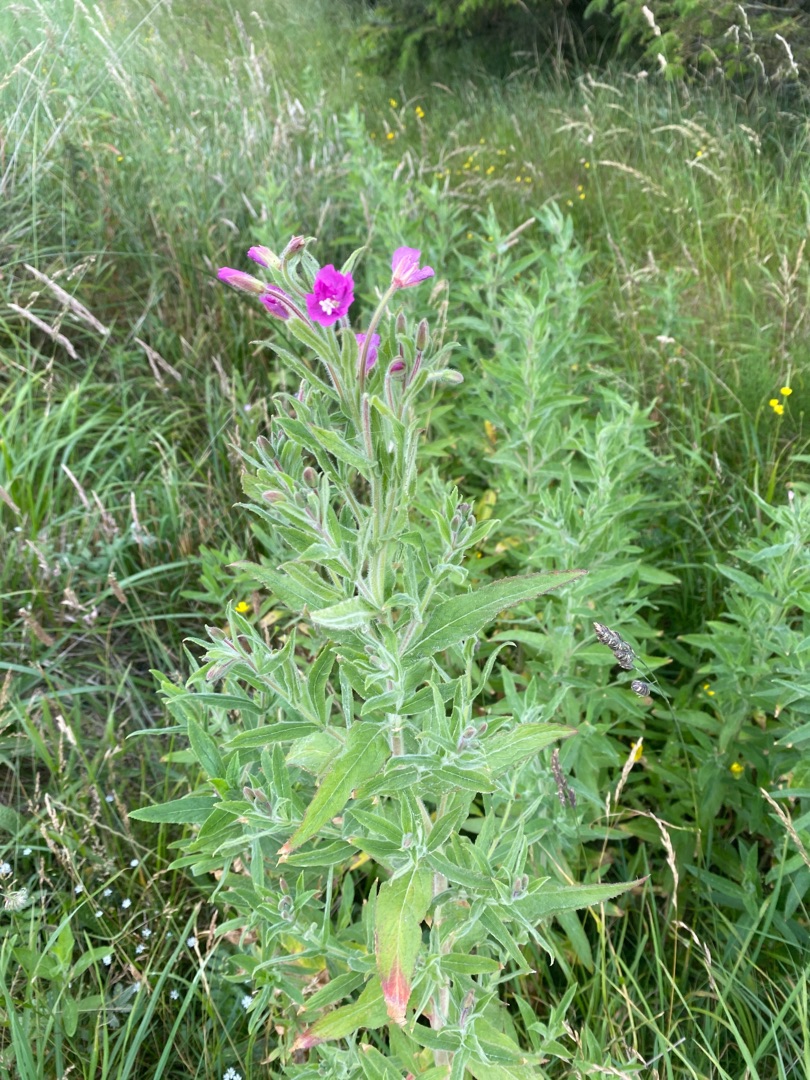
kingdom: Plantae
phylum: Tracheophyta
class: Magnoliopsida
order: Myrtales
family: Onagraceae
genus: Epilobium
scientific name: Epilobium hirsutum
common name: Lådden dueurt
